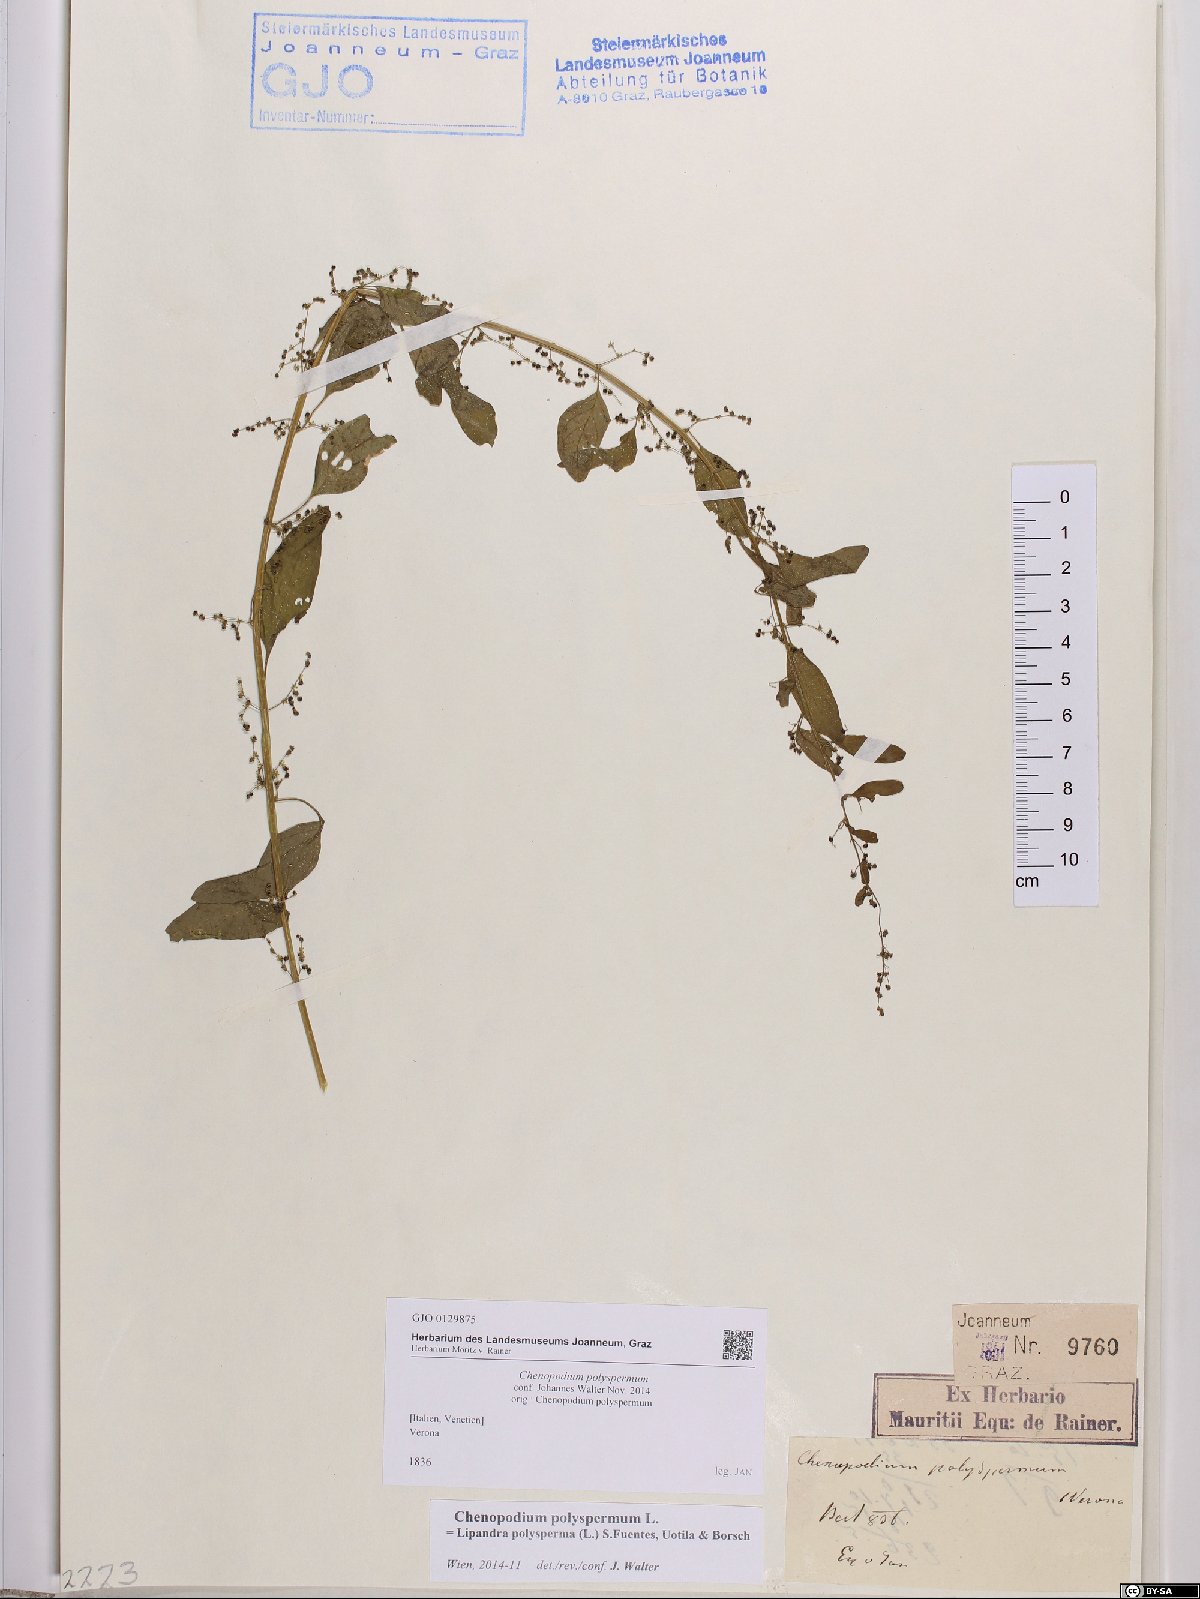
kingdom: Plantae
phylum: Tracheophyta
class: Magnoliopsida
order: Caryophyllales
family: Amaranthaceae
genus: Lipandra
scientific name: Lipandra polysperma
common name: Many-seed goosefoot
